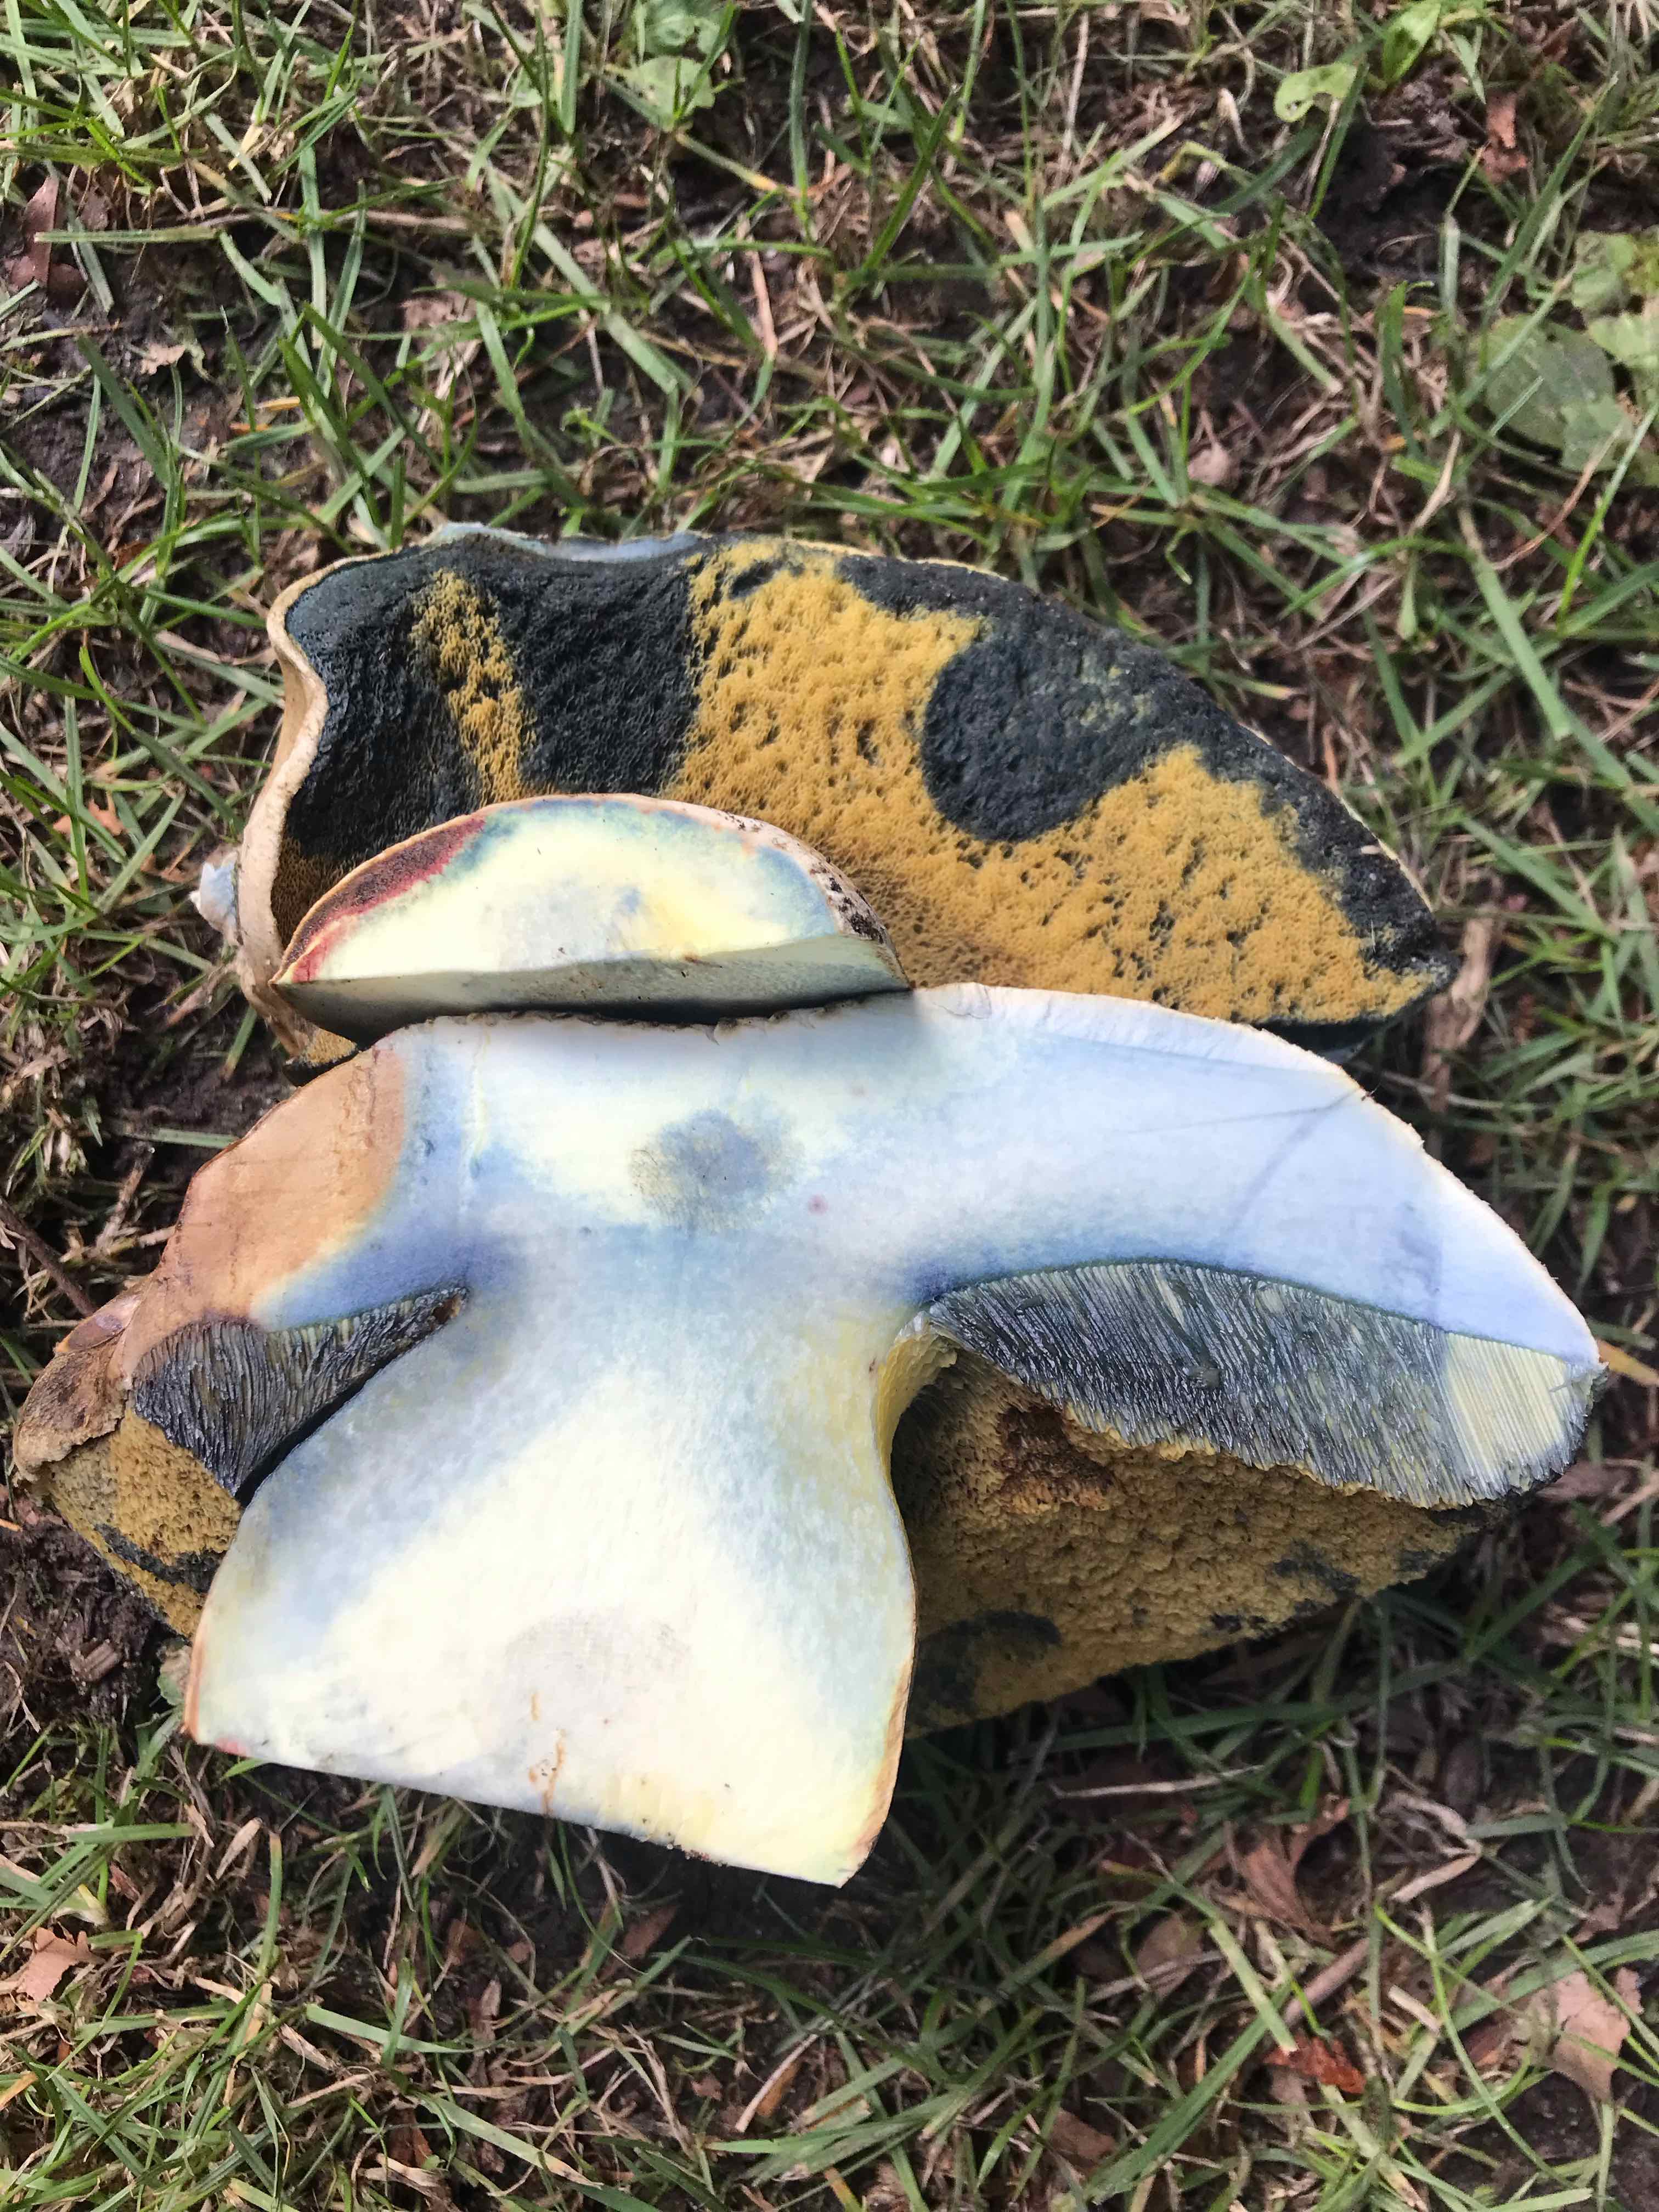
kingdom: Fungi
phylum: Basidiomycota
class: Agaricomycetes
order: Boletales
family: Boletaceae
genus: Caloboletus
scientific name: Caloboletus radicans
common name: rod-rørhat
